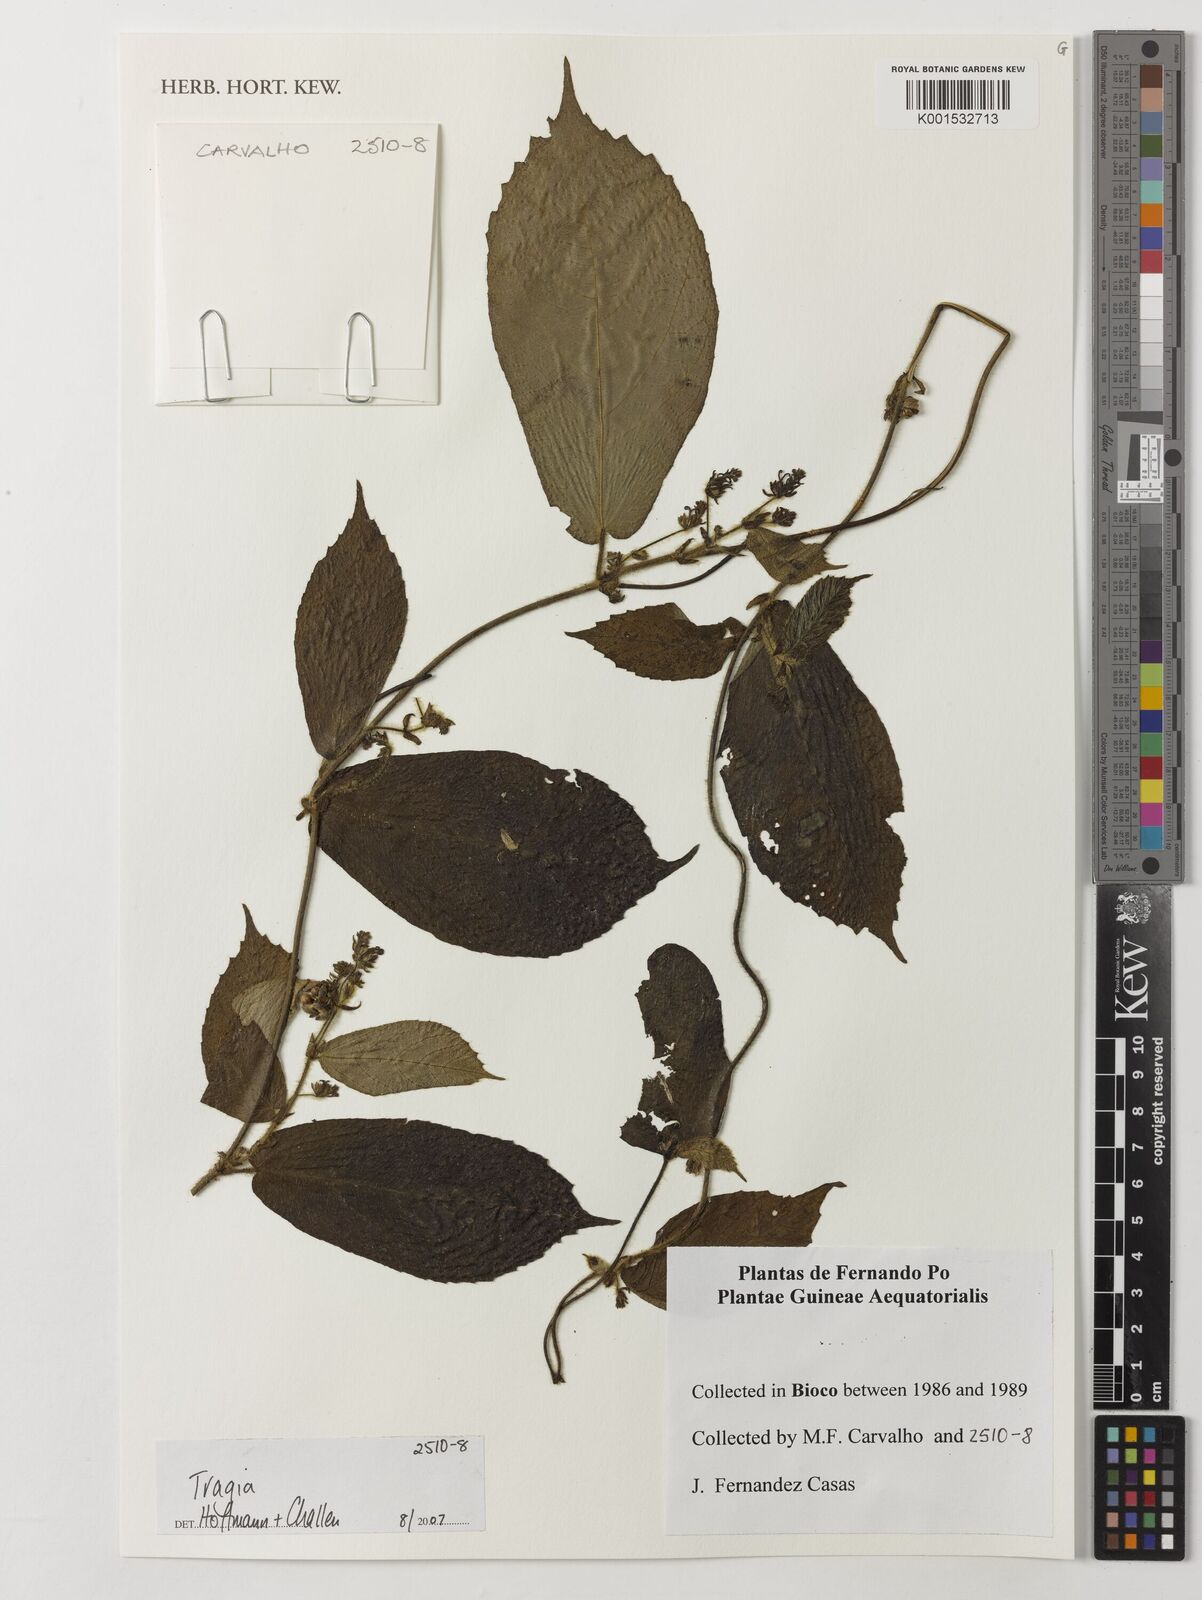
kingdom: Plantae
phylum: Tracheophyta
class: Magnoliopsida
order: Malpighiales
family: Euphorbiaceae
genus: Tragia
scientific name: Tragia
